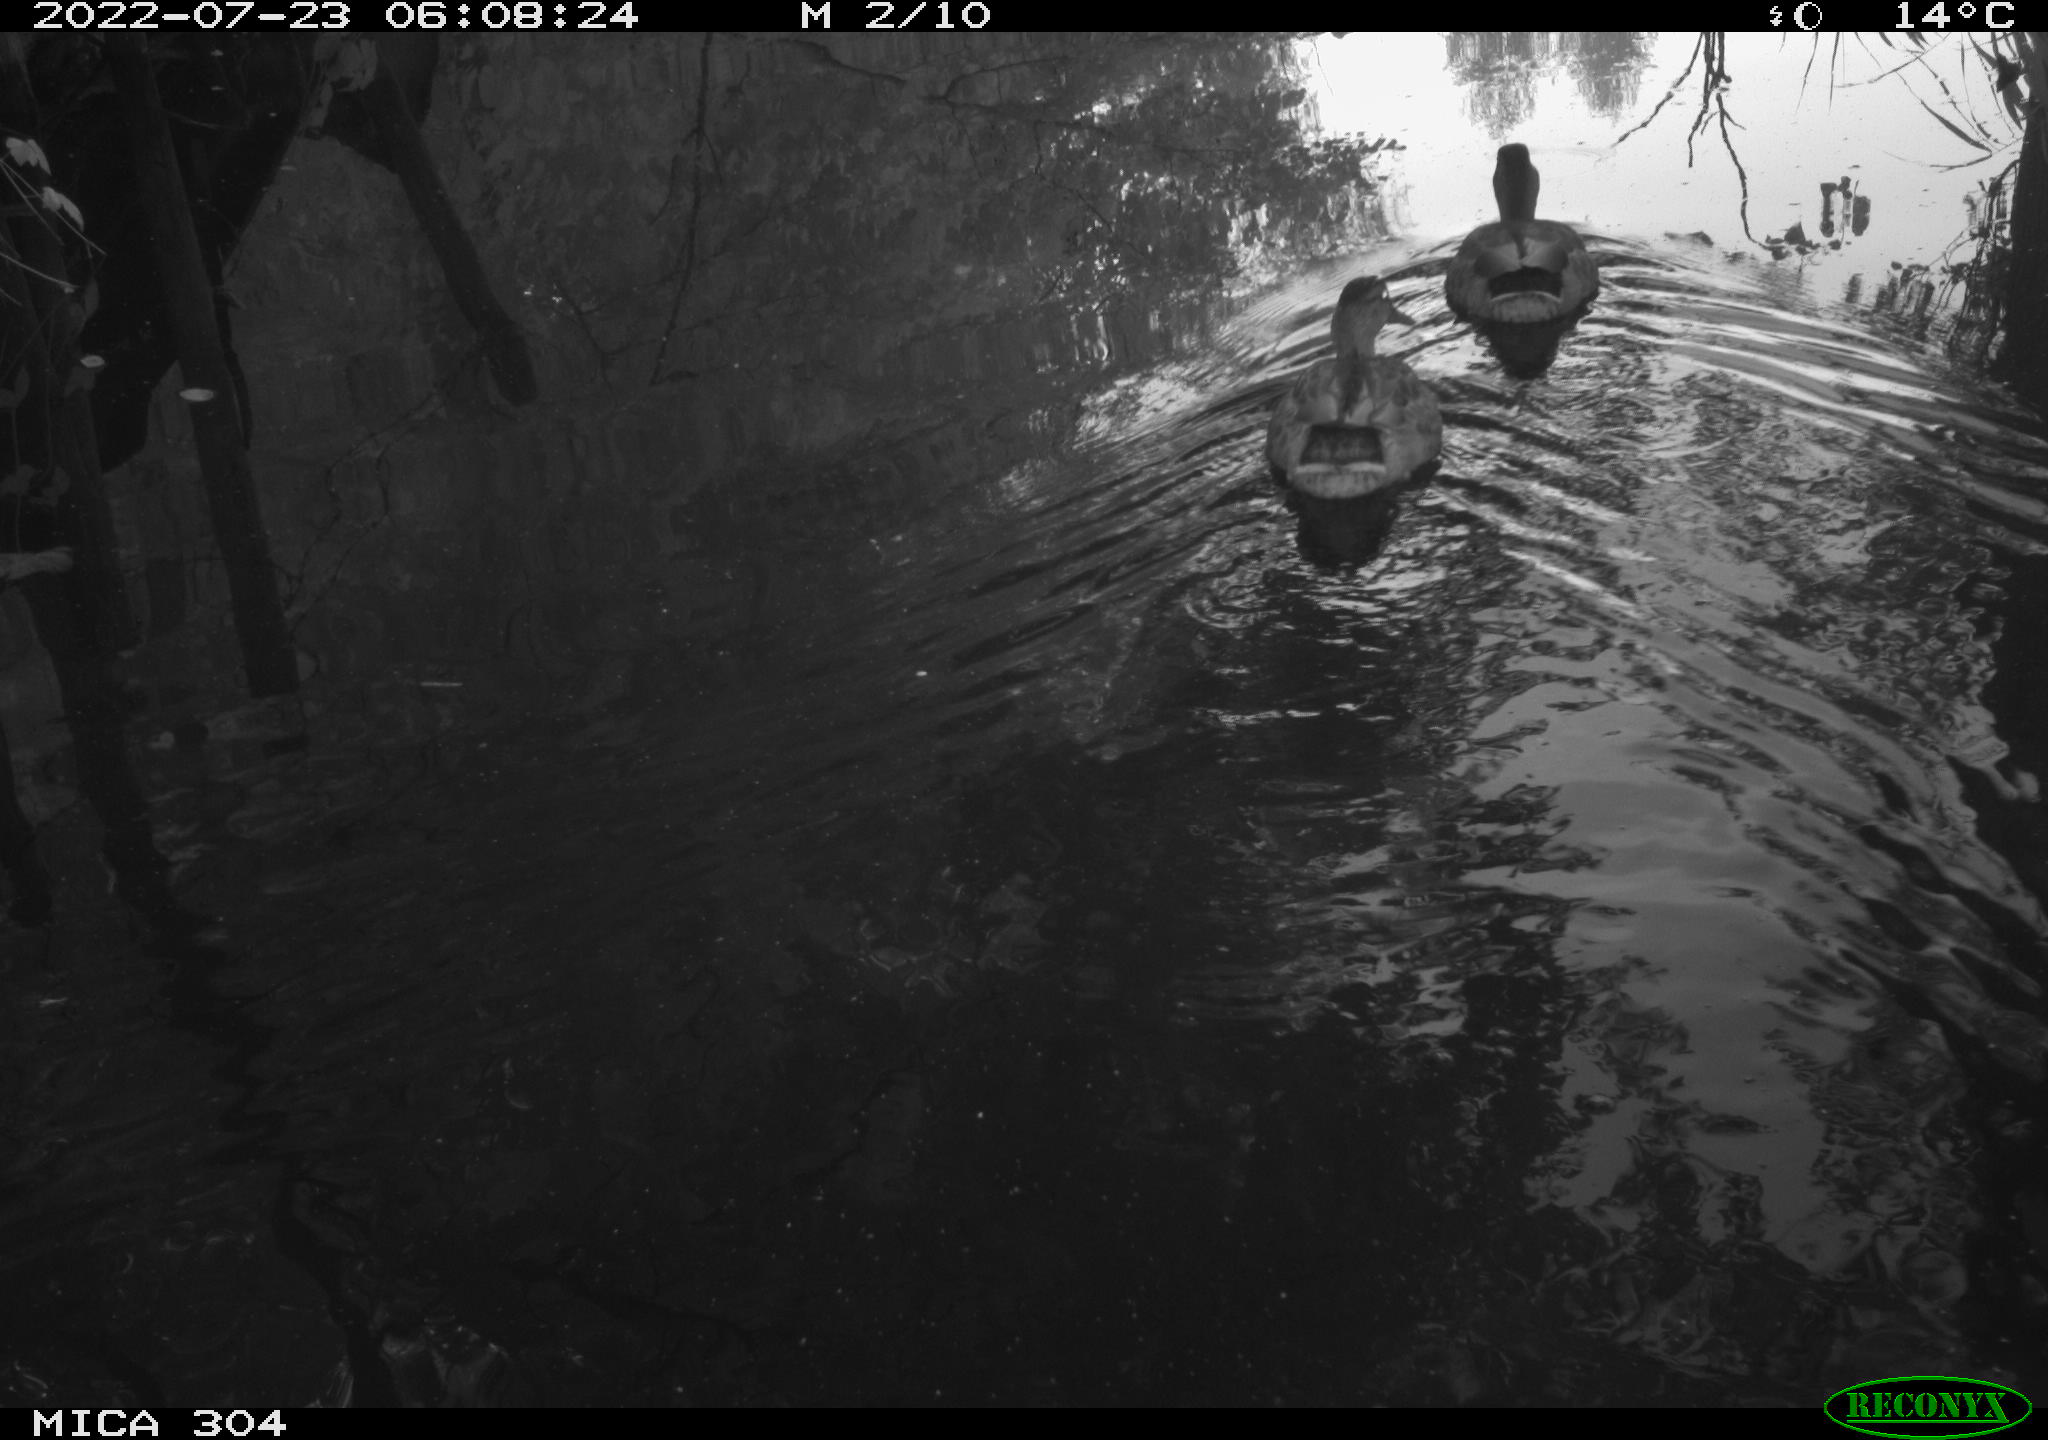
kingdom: Animalia
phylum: Chordata
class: Aves
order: Anseriformes
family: Anatidae
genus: Anas
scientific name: Anas platyrhynchos
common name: Mallard
